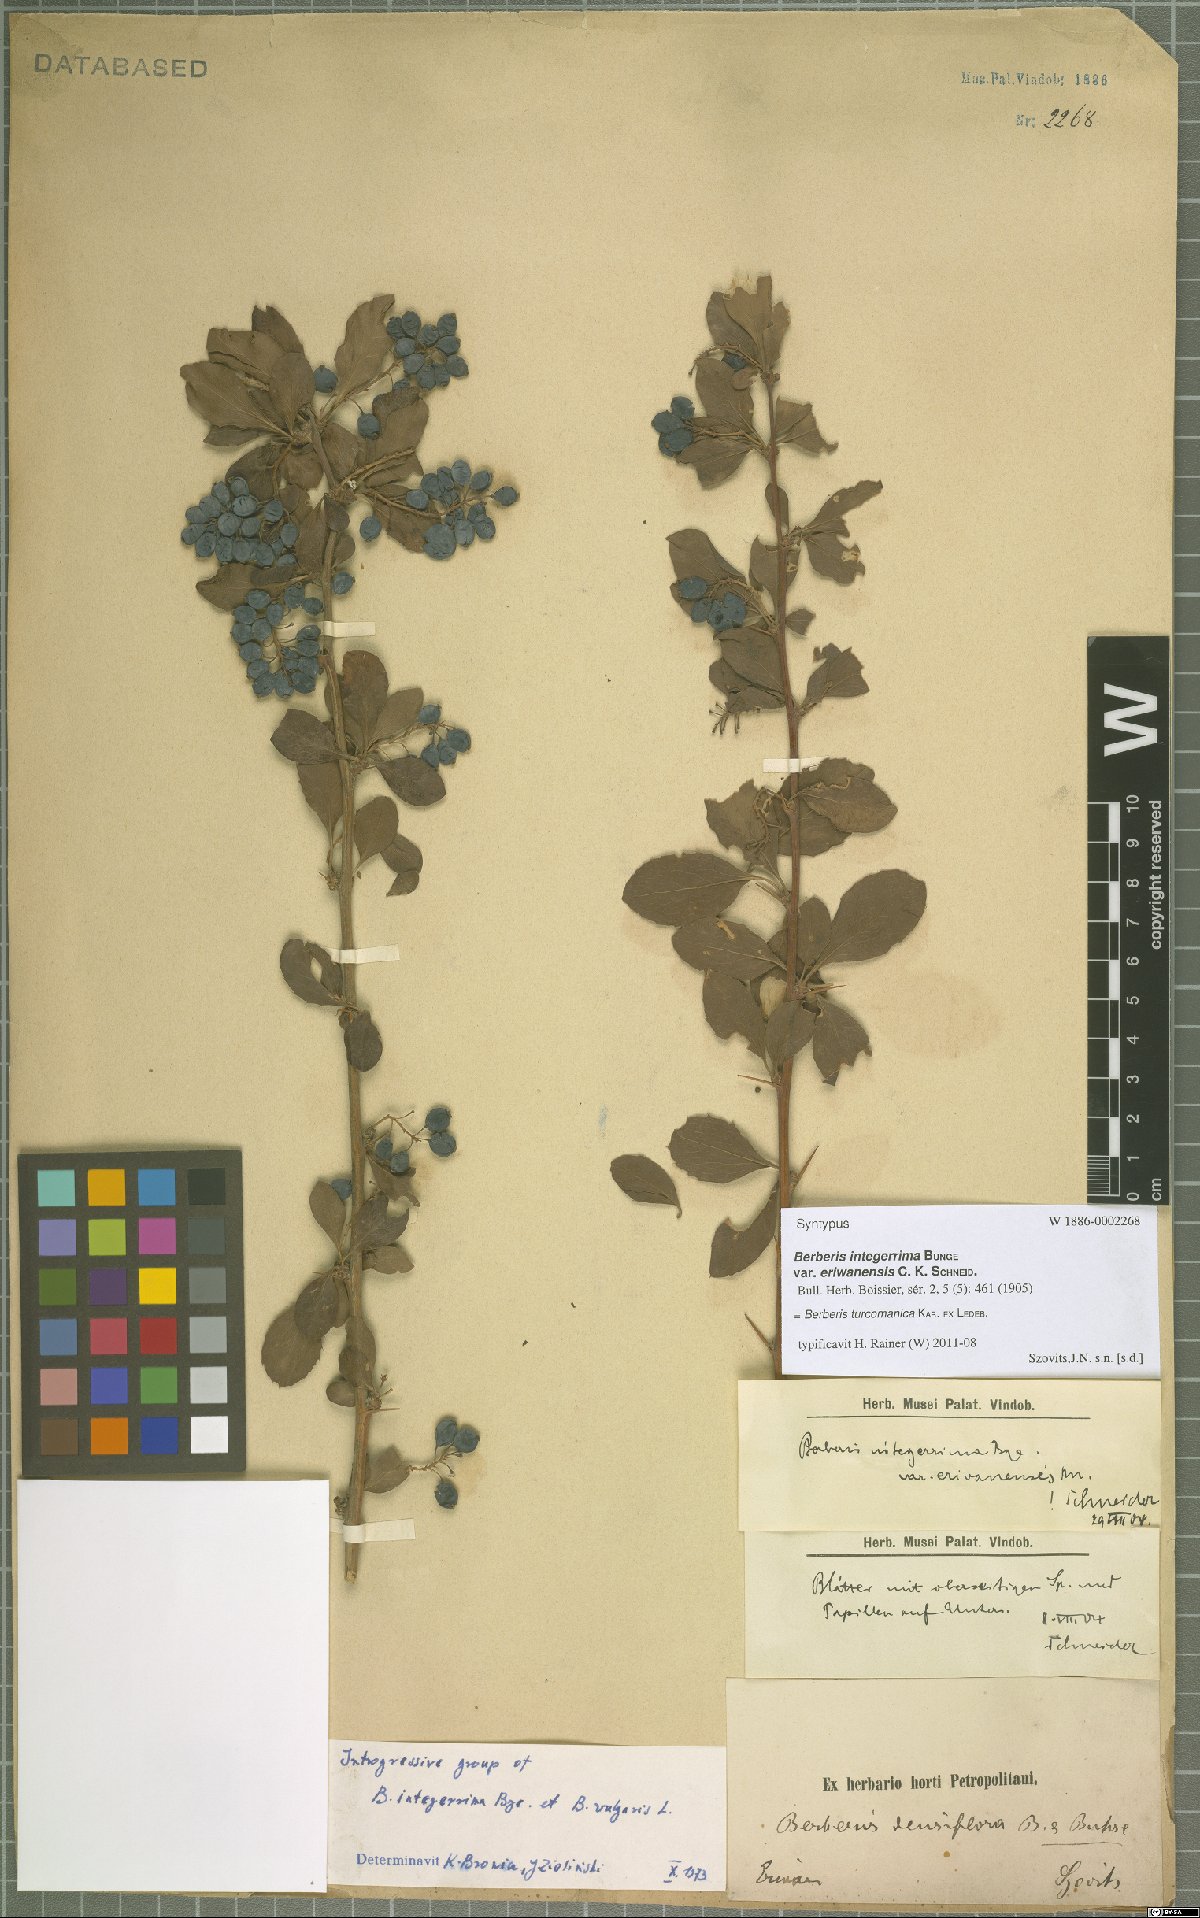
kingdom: Plantae
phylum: Tracheophyta
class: Magnoliopsida
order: Ranunculales
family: Berberidaceae
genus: Berberis
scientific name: Berberis turcomanica
